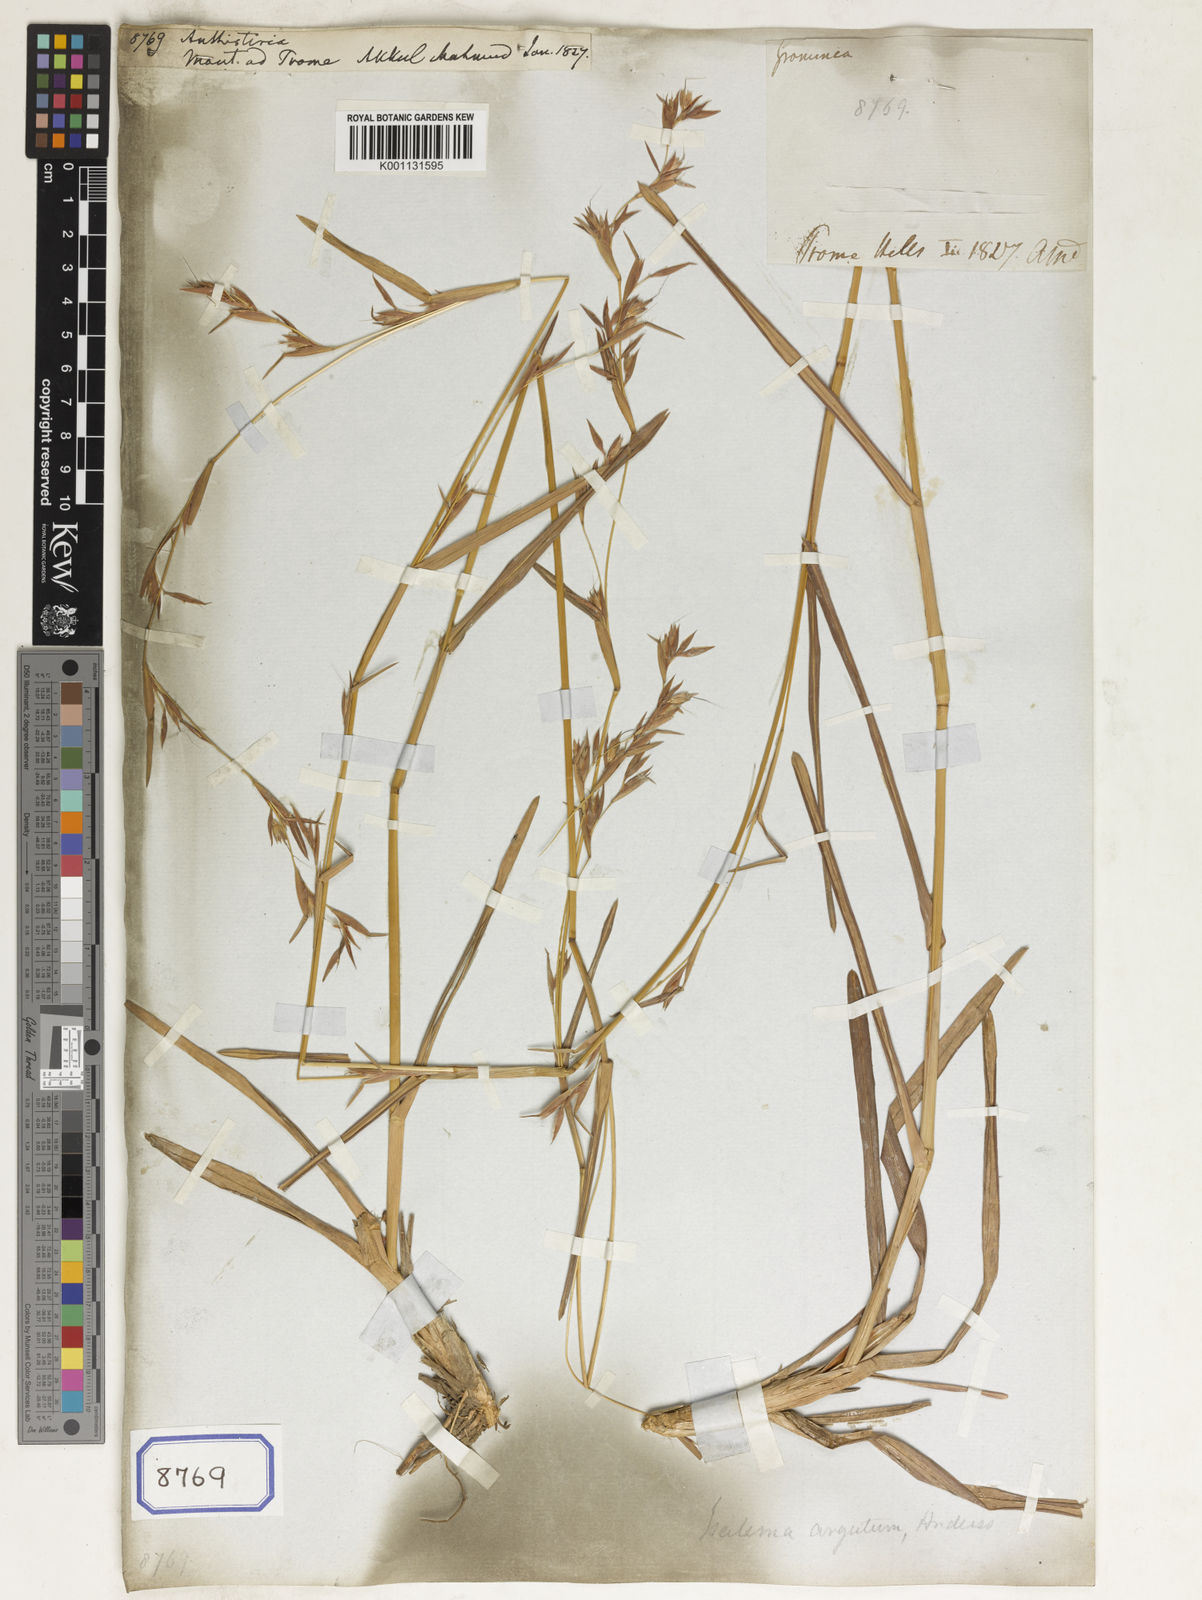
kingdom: Plantae
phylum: Tracheophyta
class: Liliopsida
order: Poales
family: Poaceae
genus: Themeda
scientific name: Themeda
